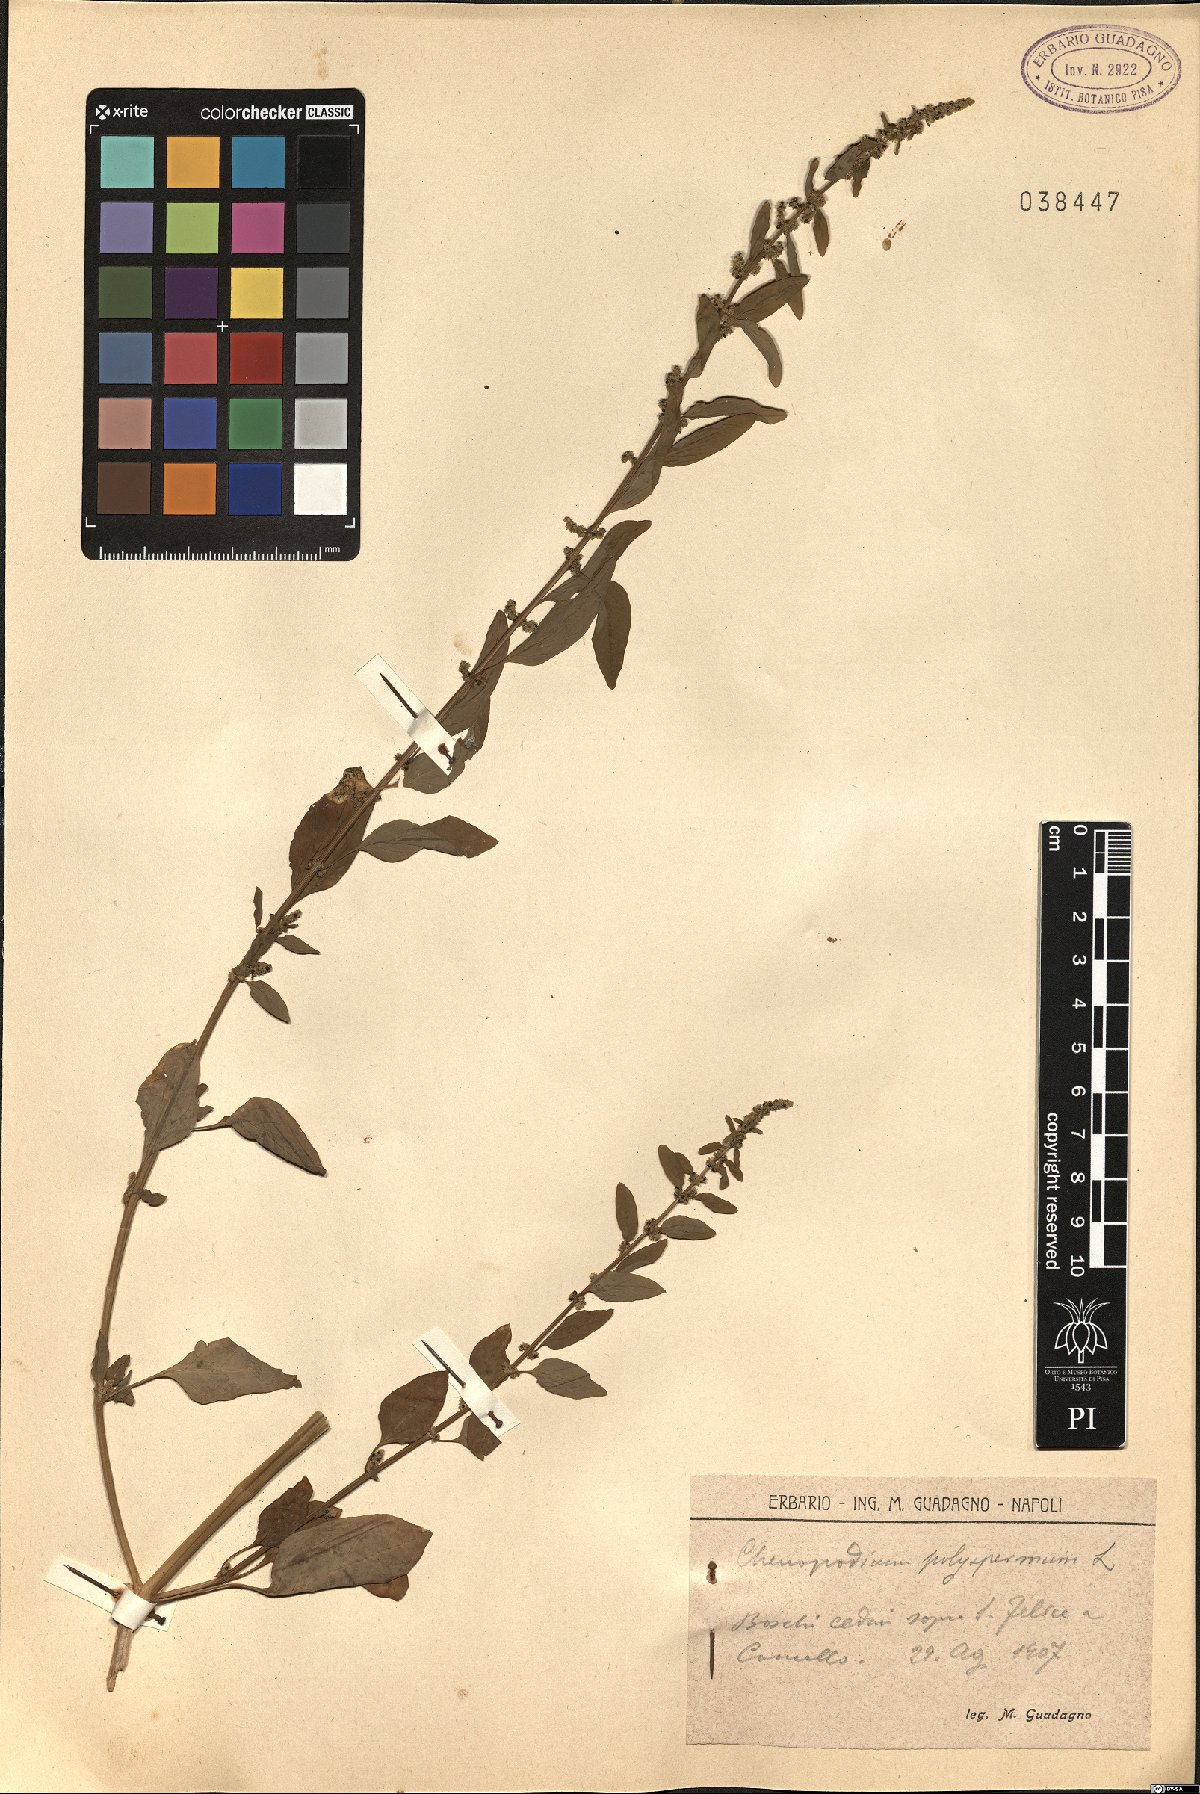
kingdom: Plantae
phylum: Tracheophyta
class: Magnoliopsida
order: Caryophyllales
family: Amaranthaceae
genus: Lipandra
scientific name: Lipandra polysperma
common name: Many-seed goosefoot
